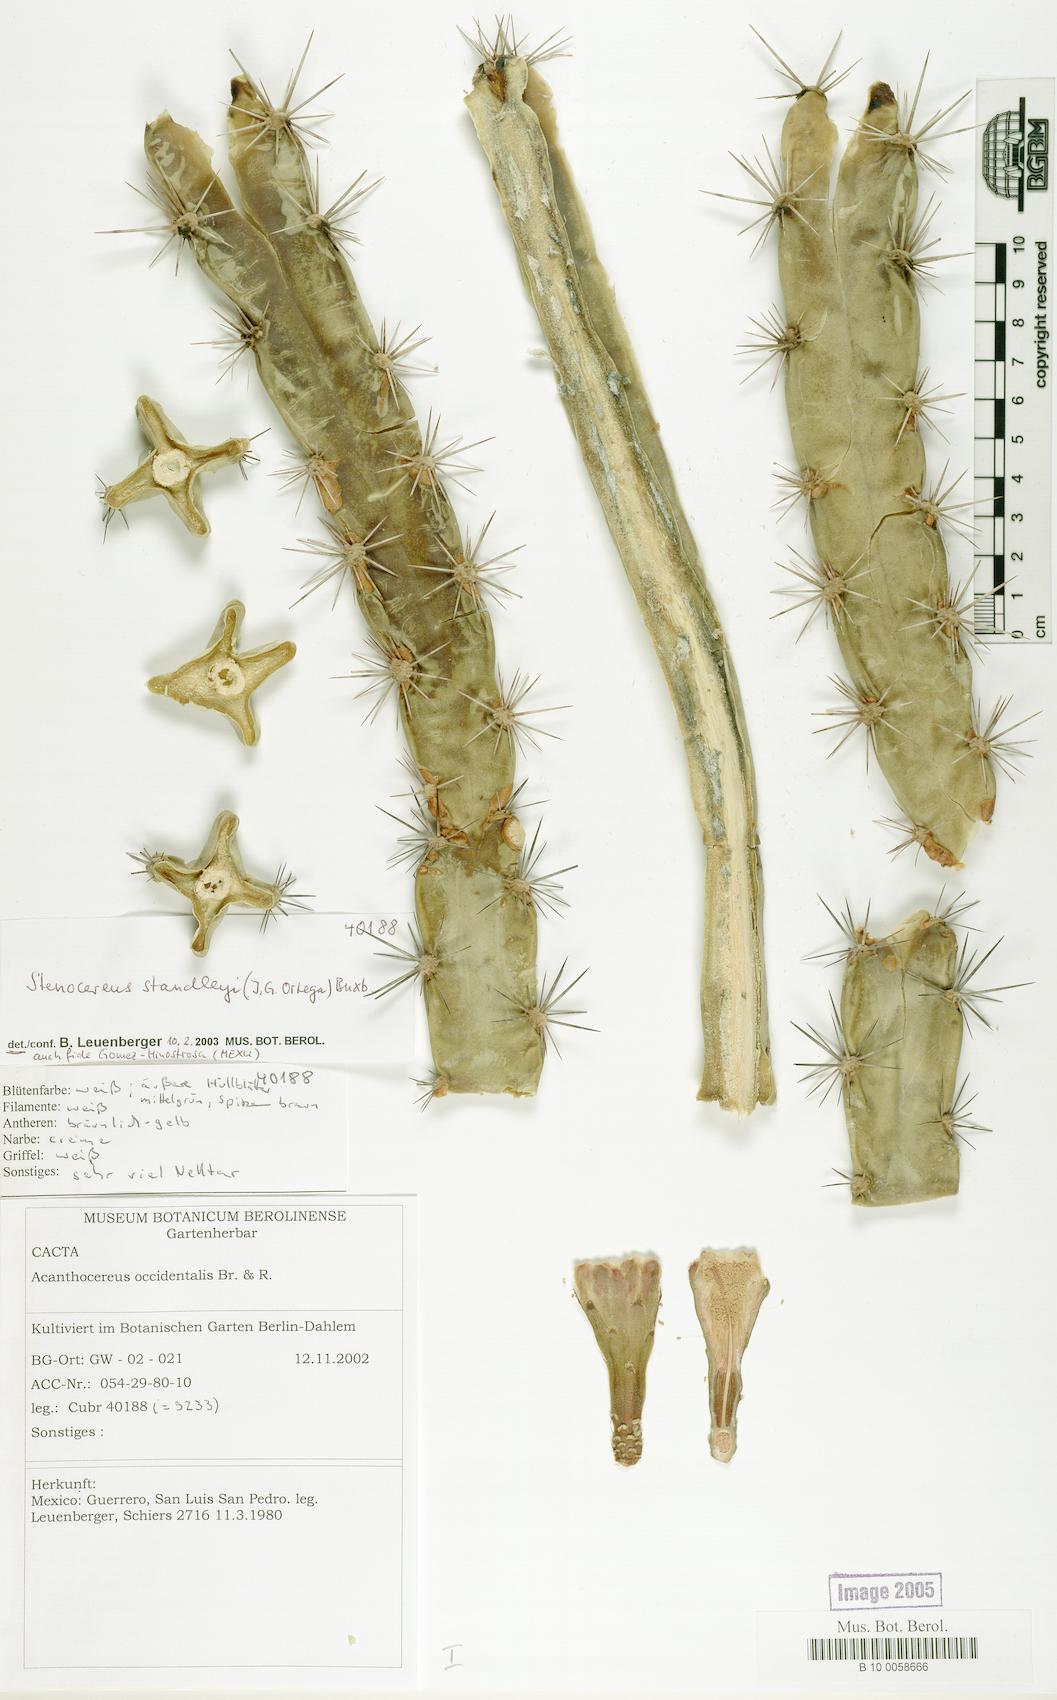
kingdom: Plantae
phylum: Tracheophyta
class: Magnoliopsida
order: Caryophyllales
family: Cactaceae
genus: Stenocereus
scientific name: Stenocereus standleyi
